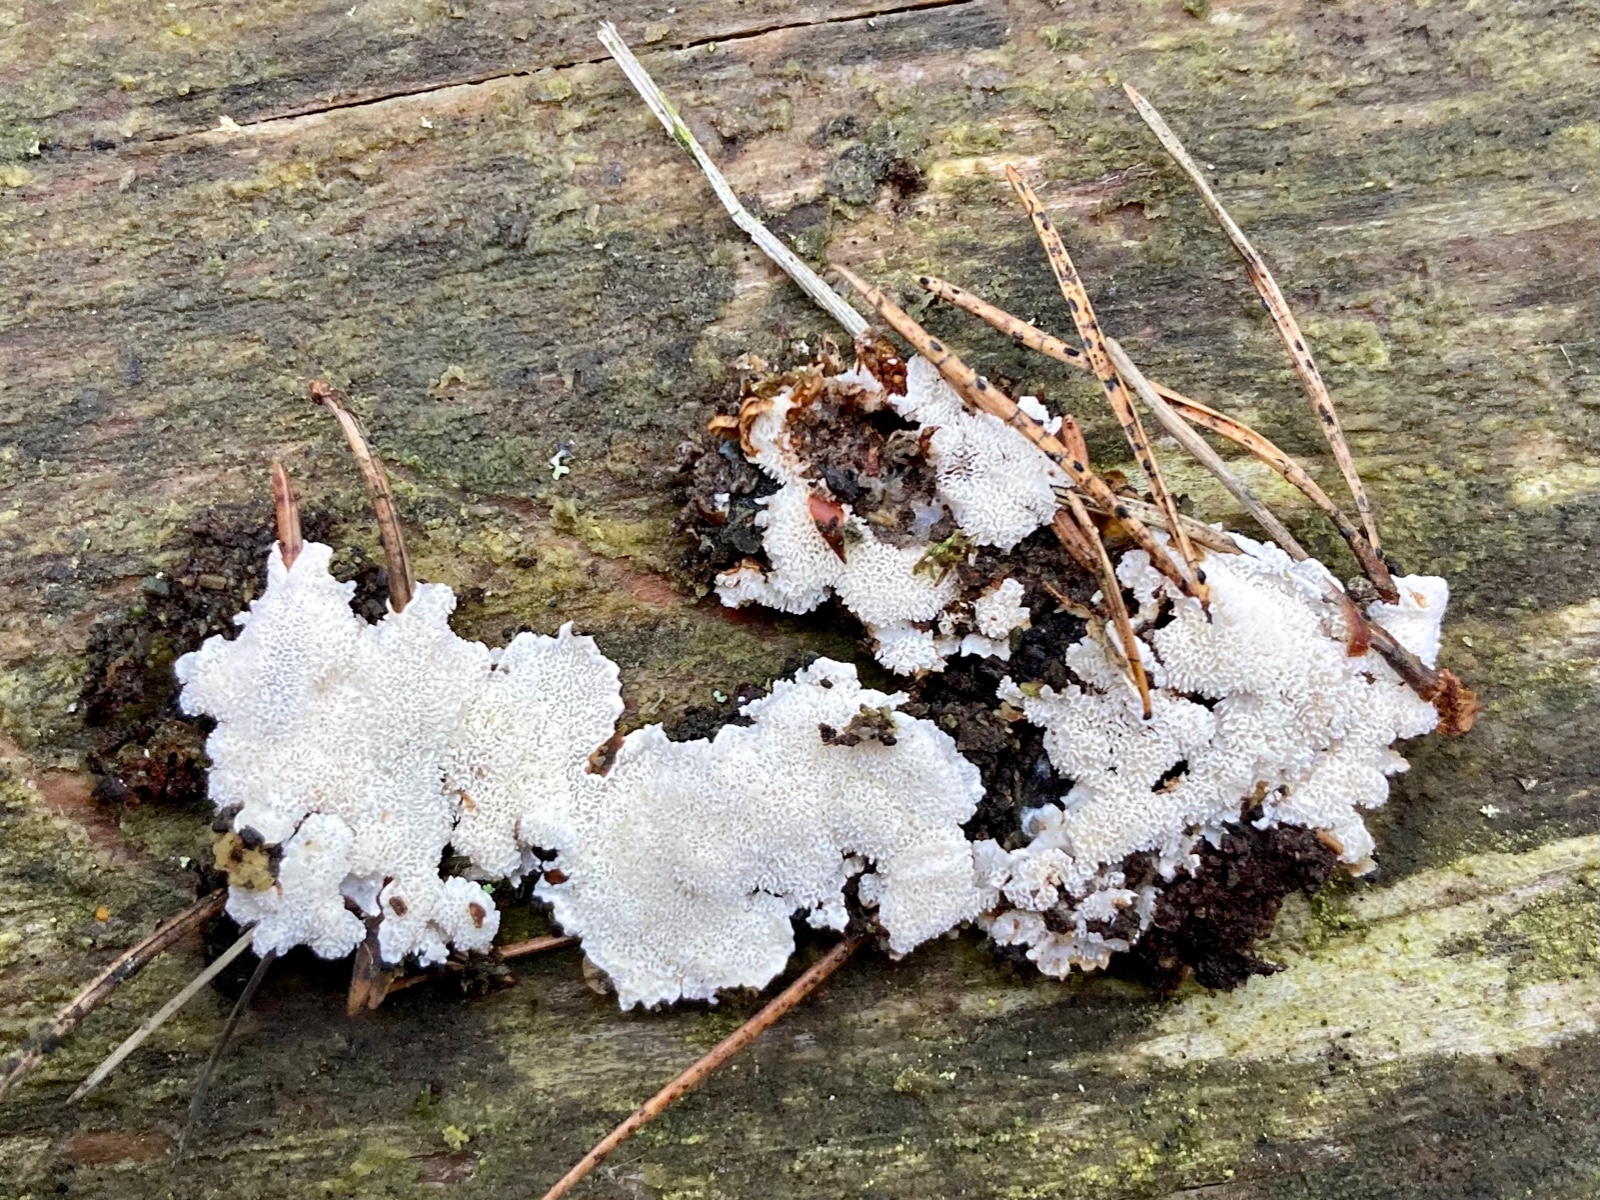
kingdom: Fungi
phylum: Basidiomycota
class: Agaricomycetes
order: Polyporales
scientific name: Polyporales
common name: poresvampordenen
